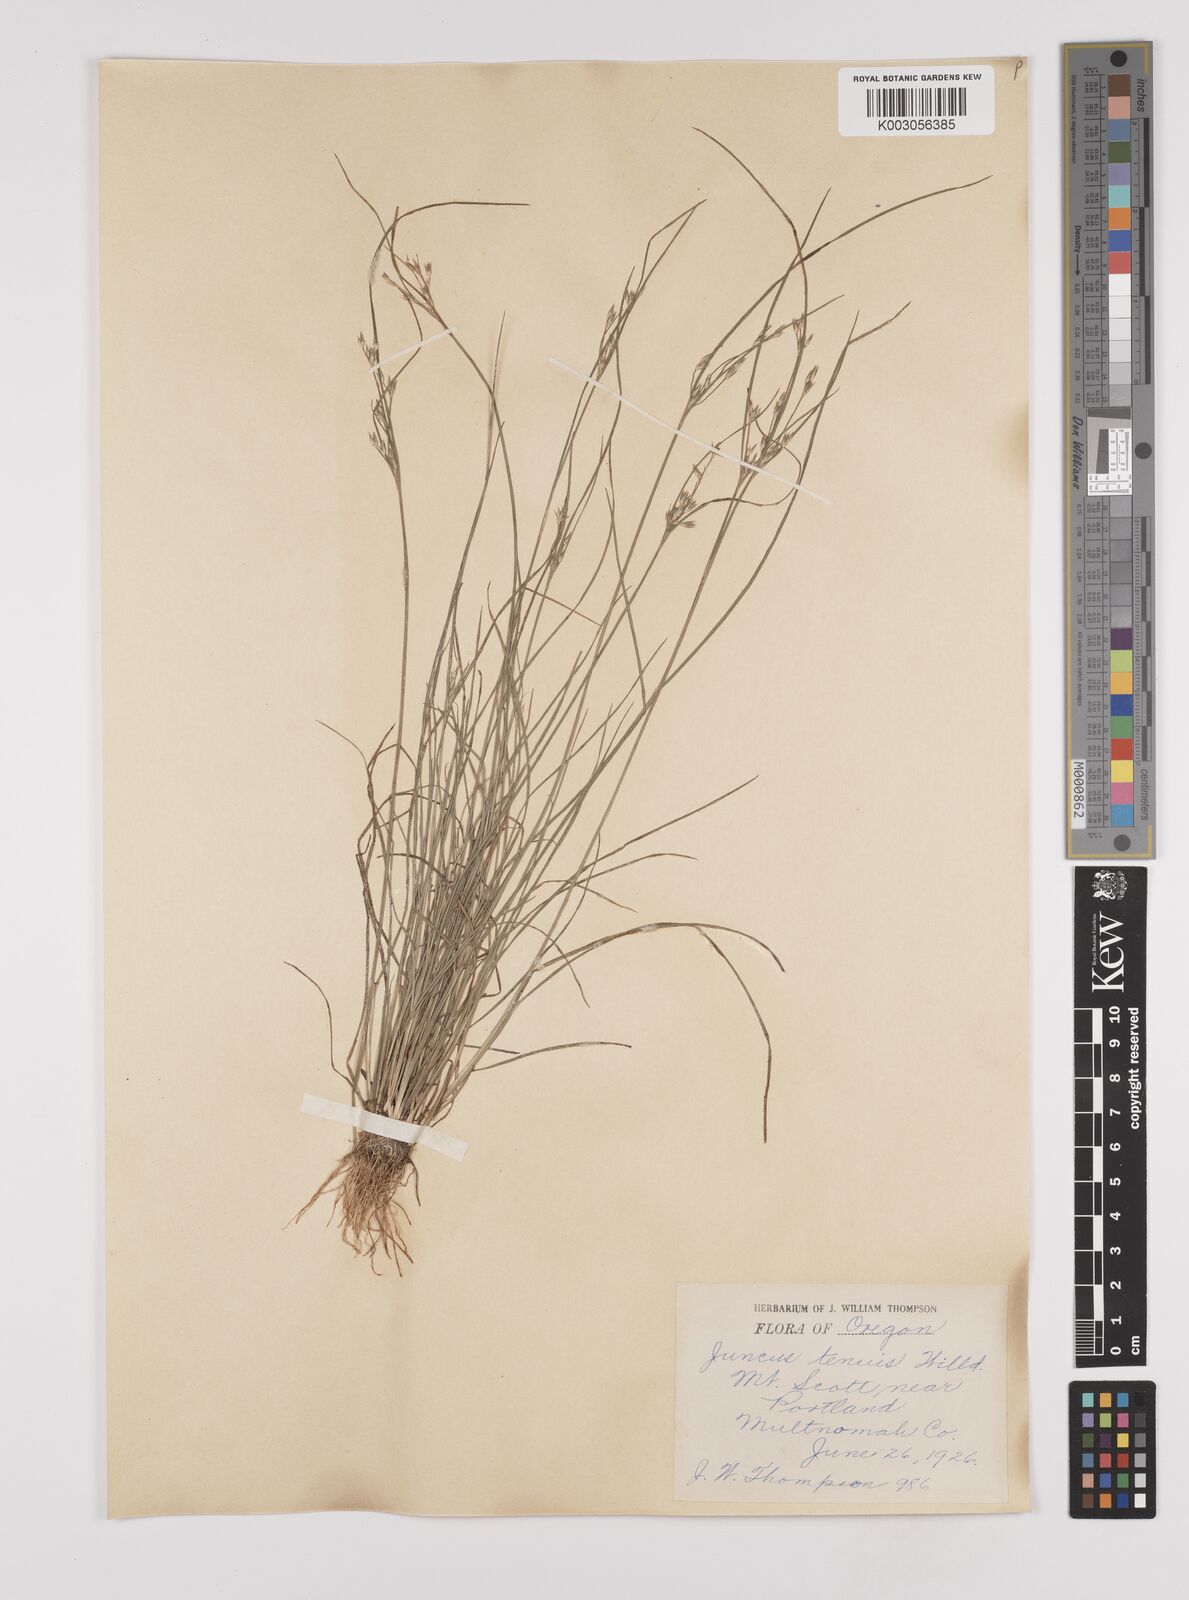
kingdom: Plantae
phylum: Tracheophyta
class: Liliopsida
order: Poales
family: Juncaceae
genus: Juncus
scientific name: Juncus tenuis
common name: Slender rush
